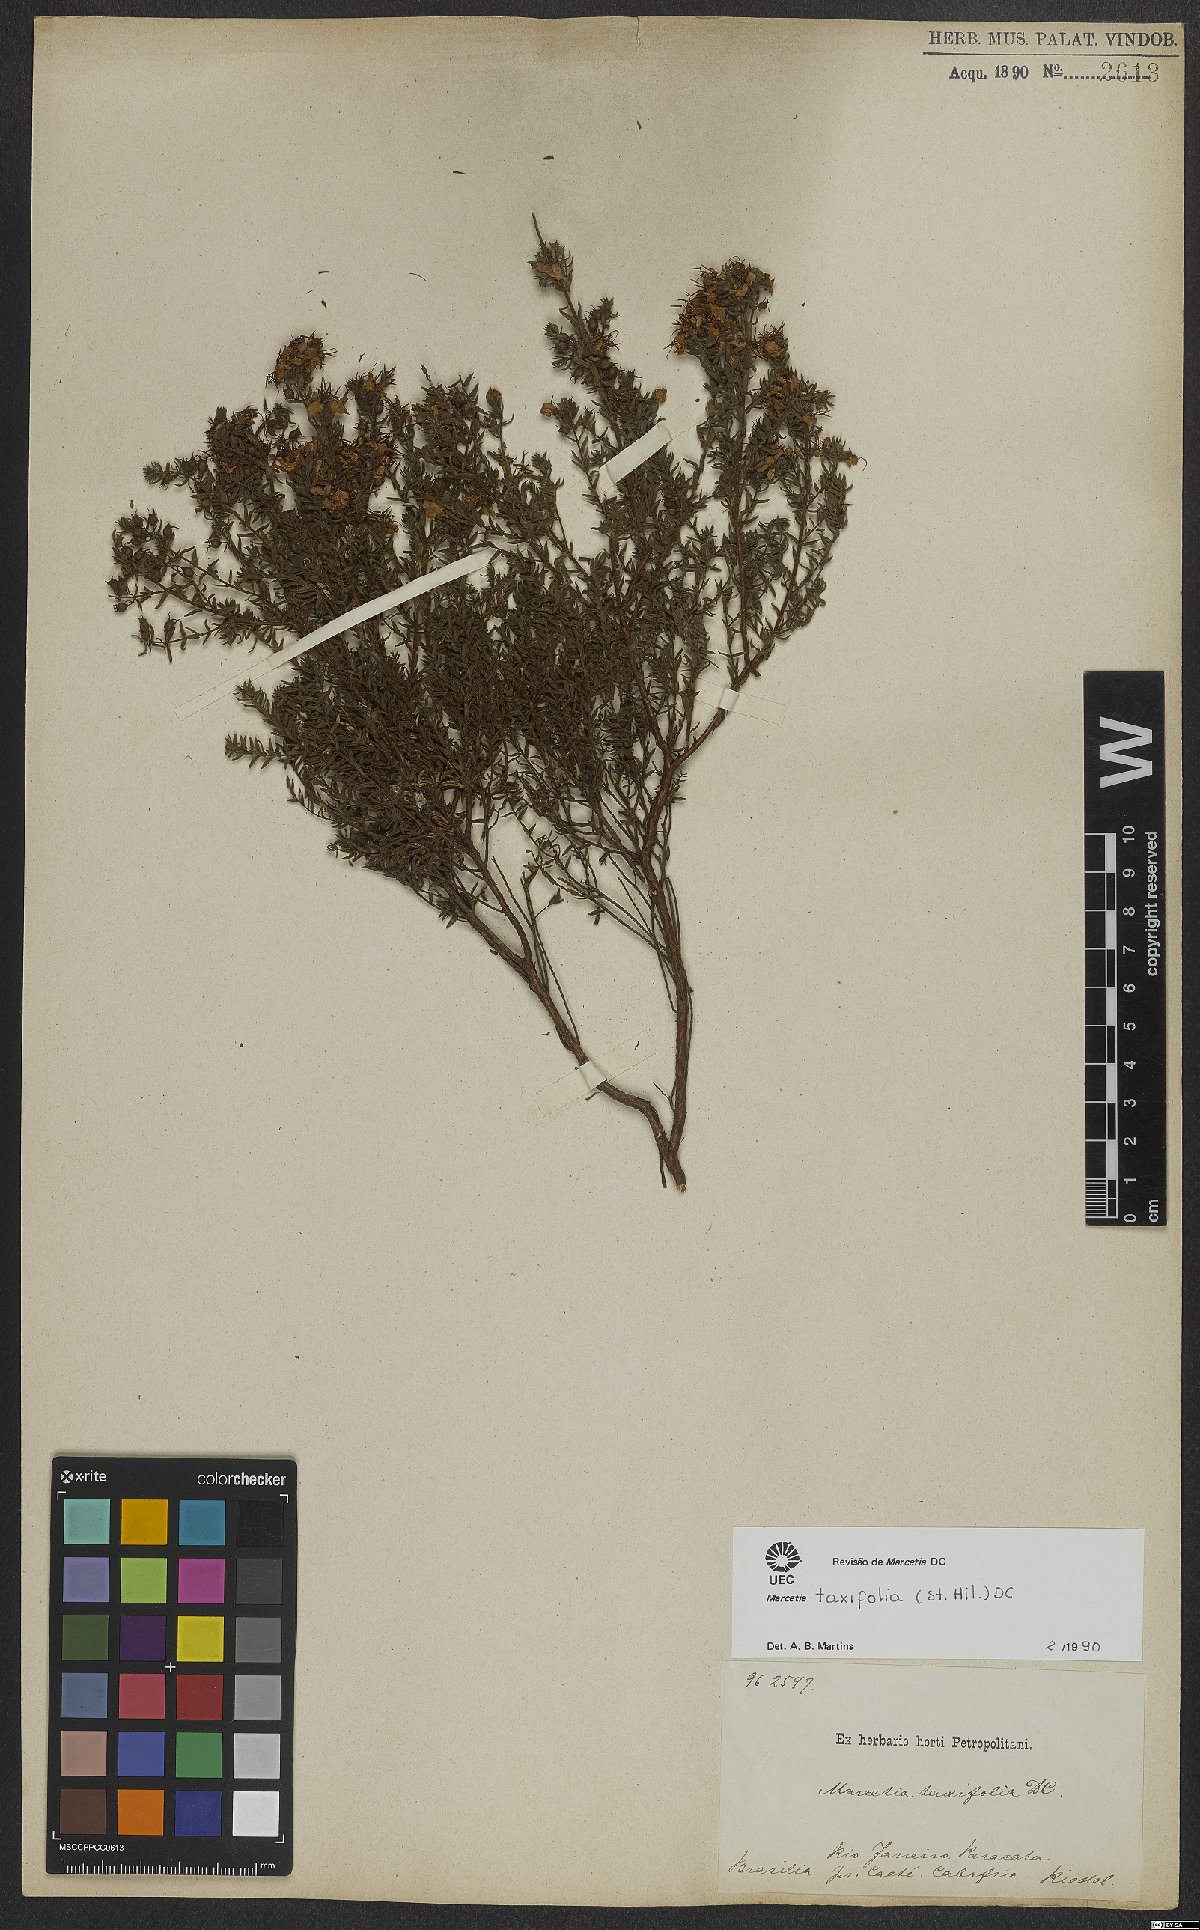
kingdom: Plantae
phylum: Tracheophyta
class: Magnoliopsida
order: Myrtales
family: Melastomataceae
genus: Marcetia
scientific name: Marcetia taxifolia
